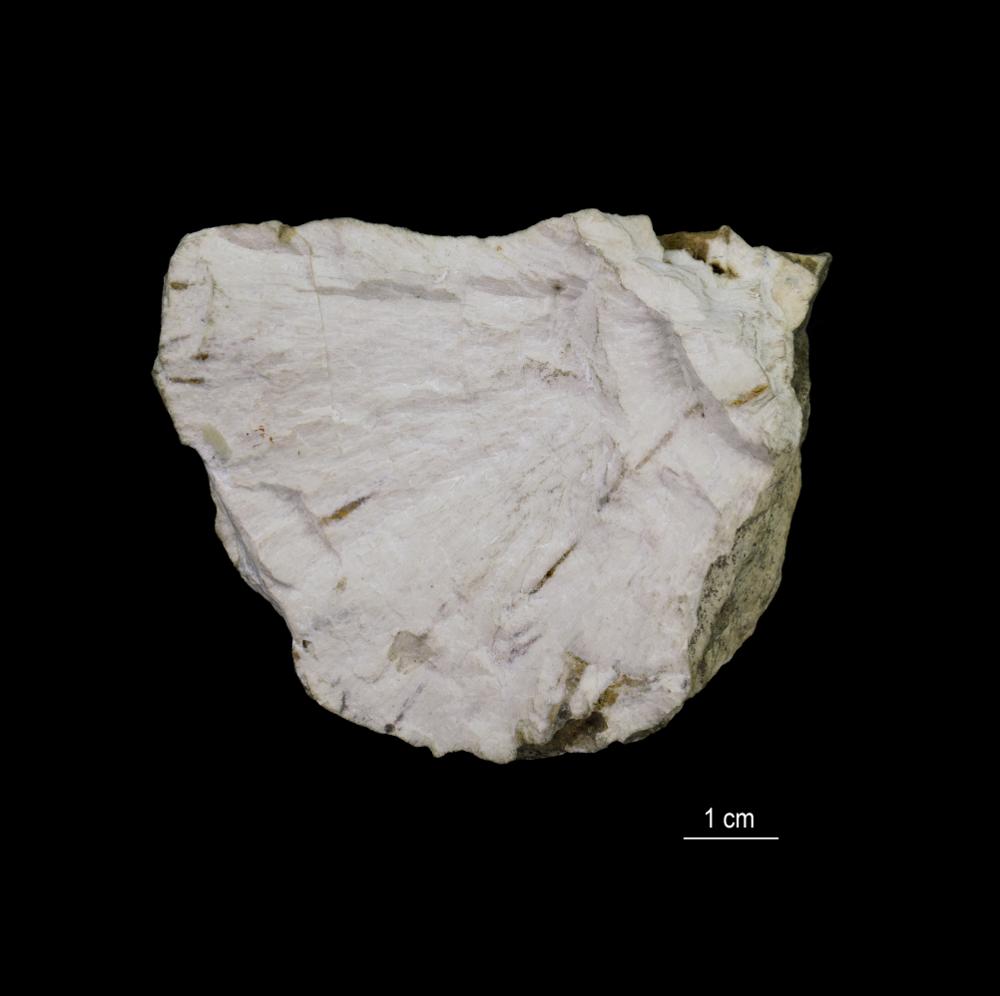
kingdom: Animalia
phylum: Porifera
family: Chaetetidae
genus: Solenopora
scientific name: Solenopora spongioides
